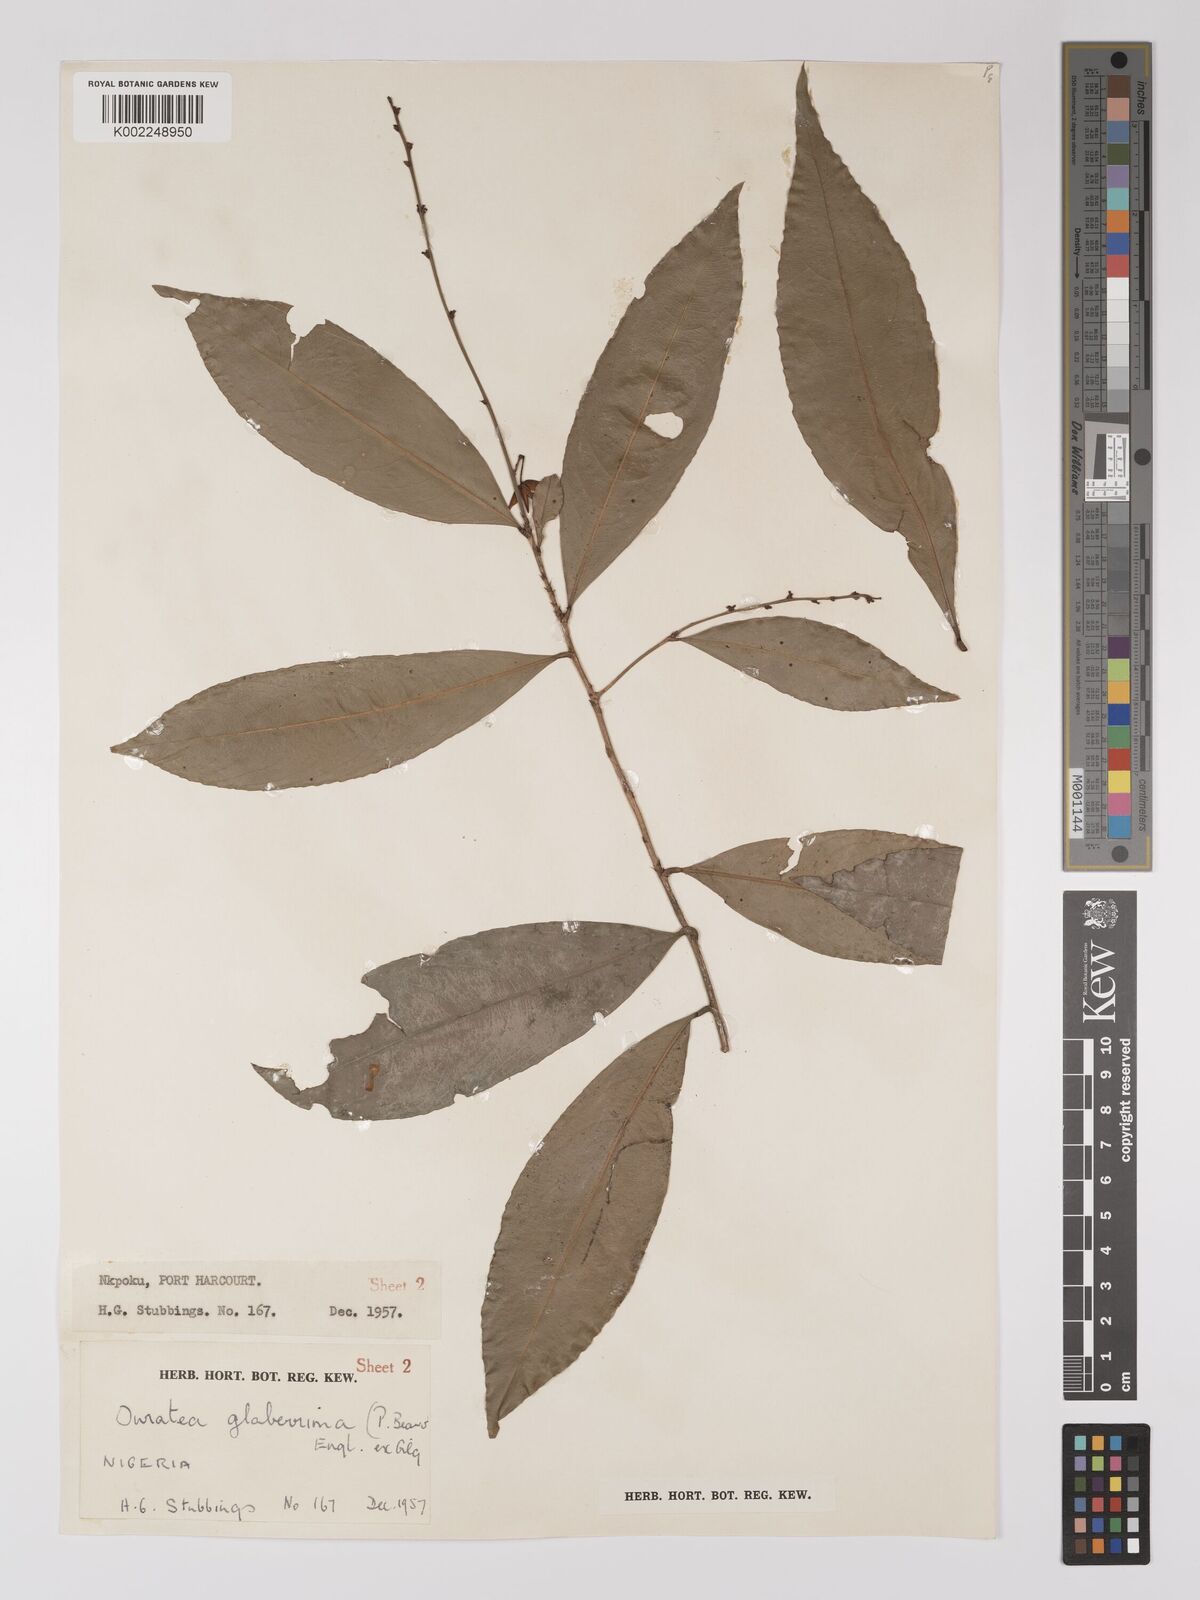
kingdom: Plantae
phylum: Tracheophyta
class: Magnoliopsida
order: Malpighiales
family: Ochnaceae
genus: Campylospermum
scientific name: Campylospermum glaberrimum
